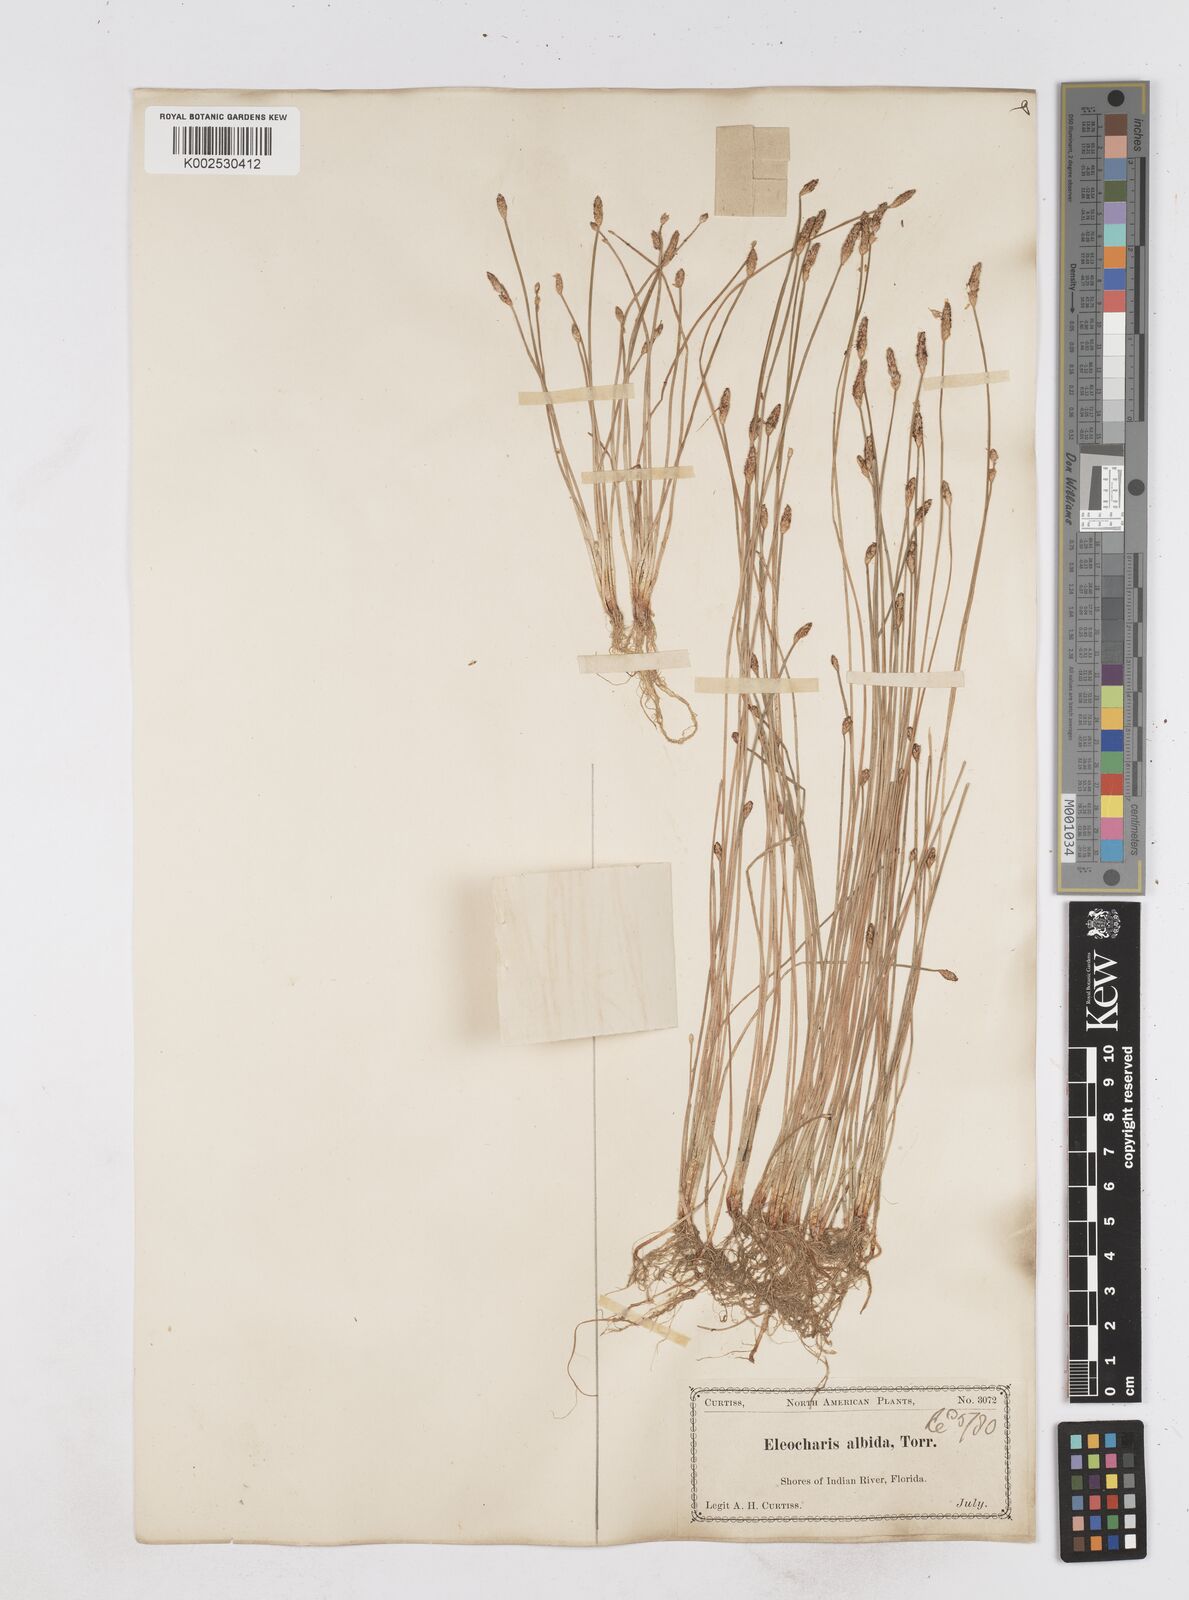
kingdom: Plantae
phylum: Tracheophyta
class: Liliopsida
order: Poales
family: Cyperaceae
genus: Eleocharis
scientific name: Eleocharis albida
